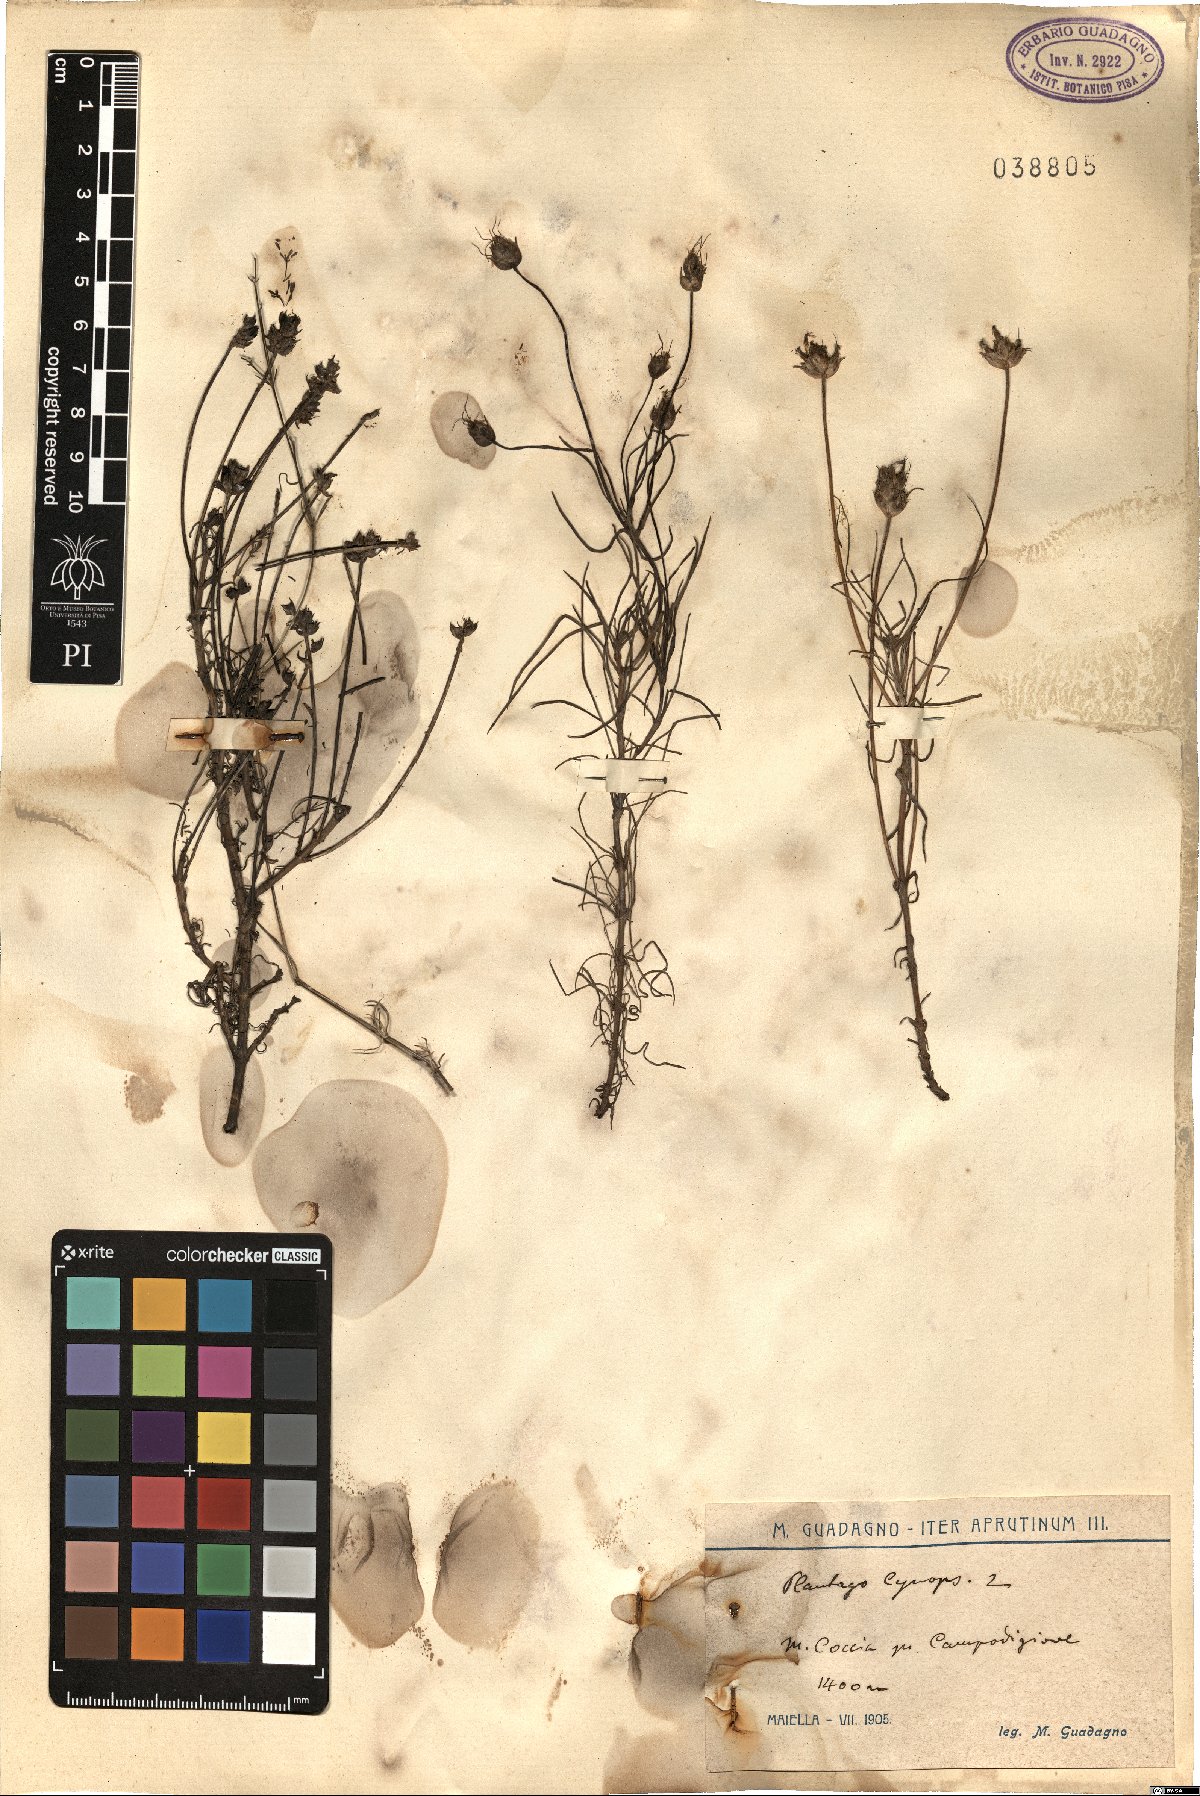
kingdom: Plantae
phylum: Tracheophyta
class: Magnoliopsida
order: Lamiales
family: Plantaginaceae
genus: Plantago
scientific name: Plantago sempervirens
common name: Shrubby plantain
